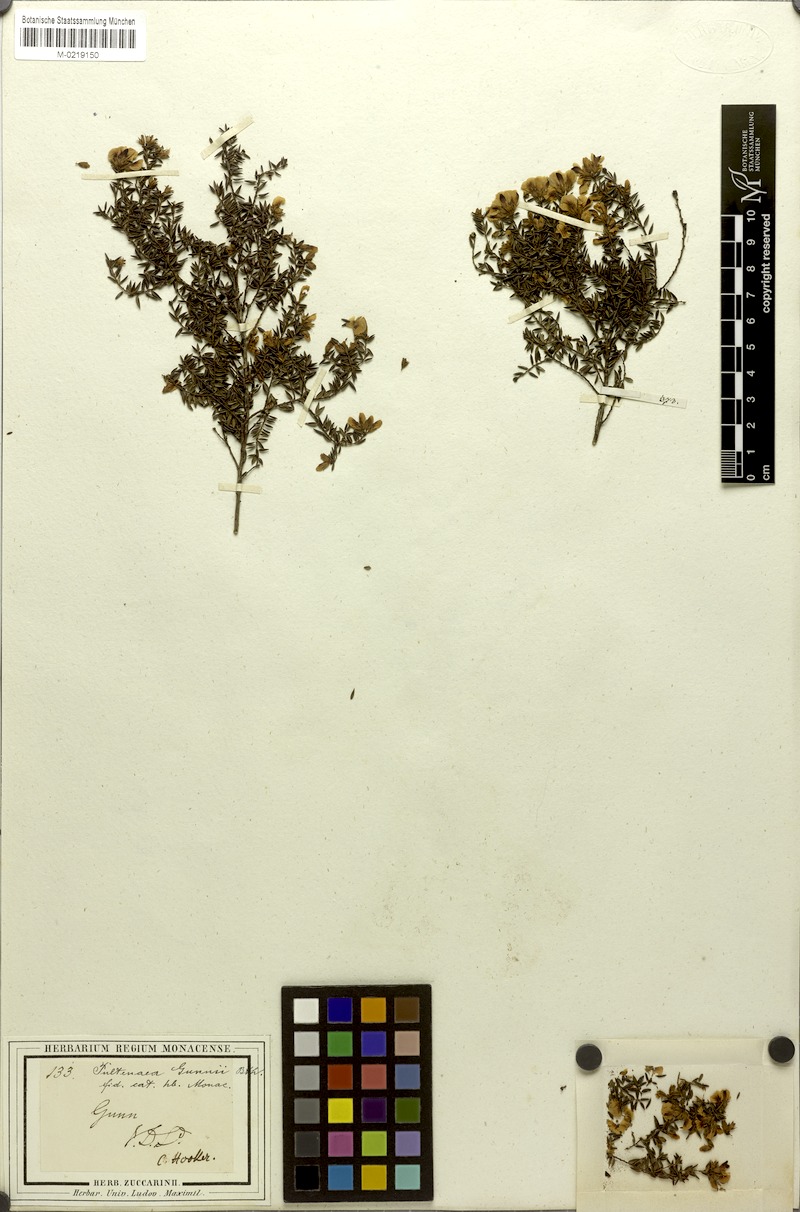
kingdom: Plantae
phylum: Tracheophyta
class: Magnoliopsida
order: Fabales
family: Fabaceae
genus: Pultenaea
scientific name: Pultenaea gunnii
